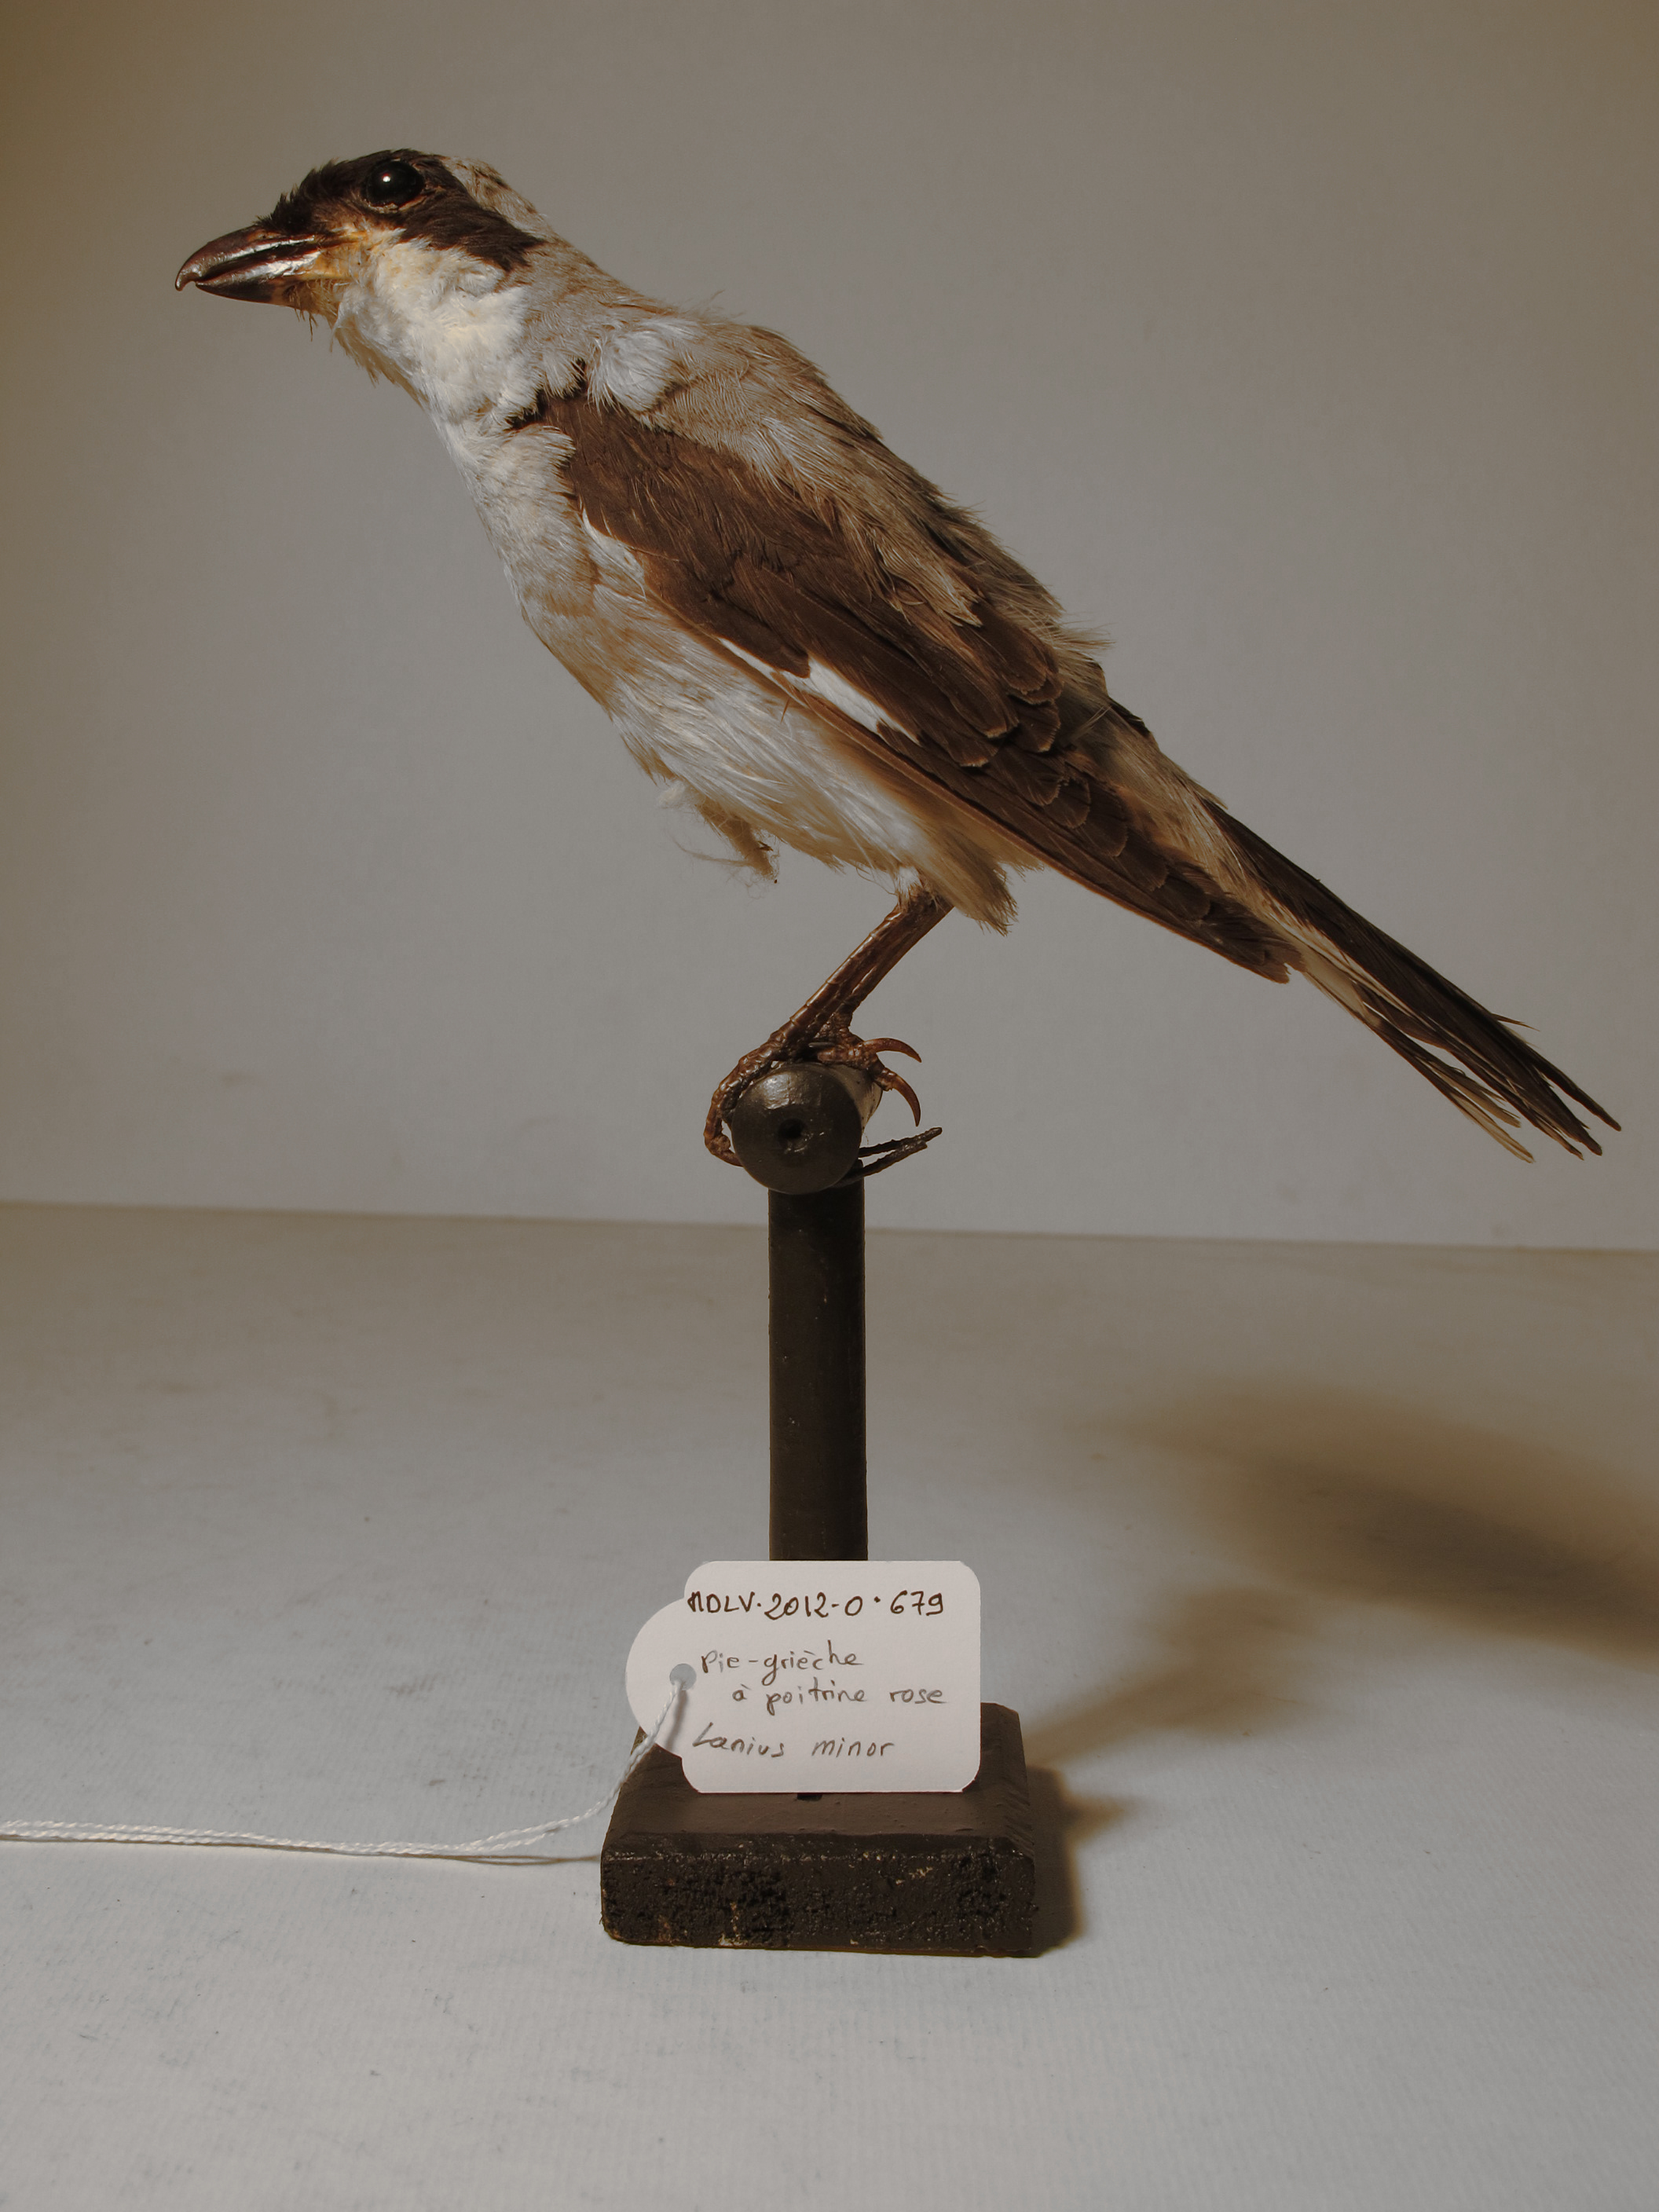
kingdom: Animalia
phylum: Chordata
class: Aves
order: Passeriformes
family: Laniidae
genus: Lanius
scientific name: Lanius minor
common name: Lesser Grey Shrike
